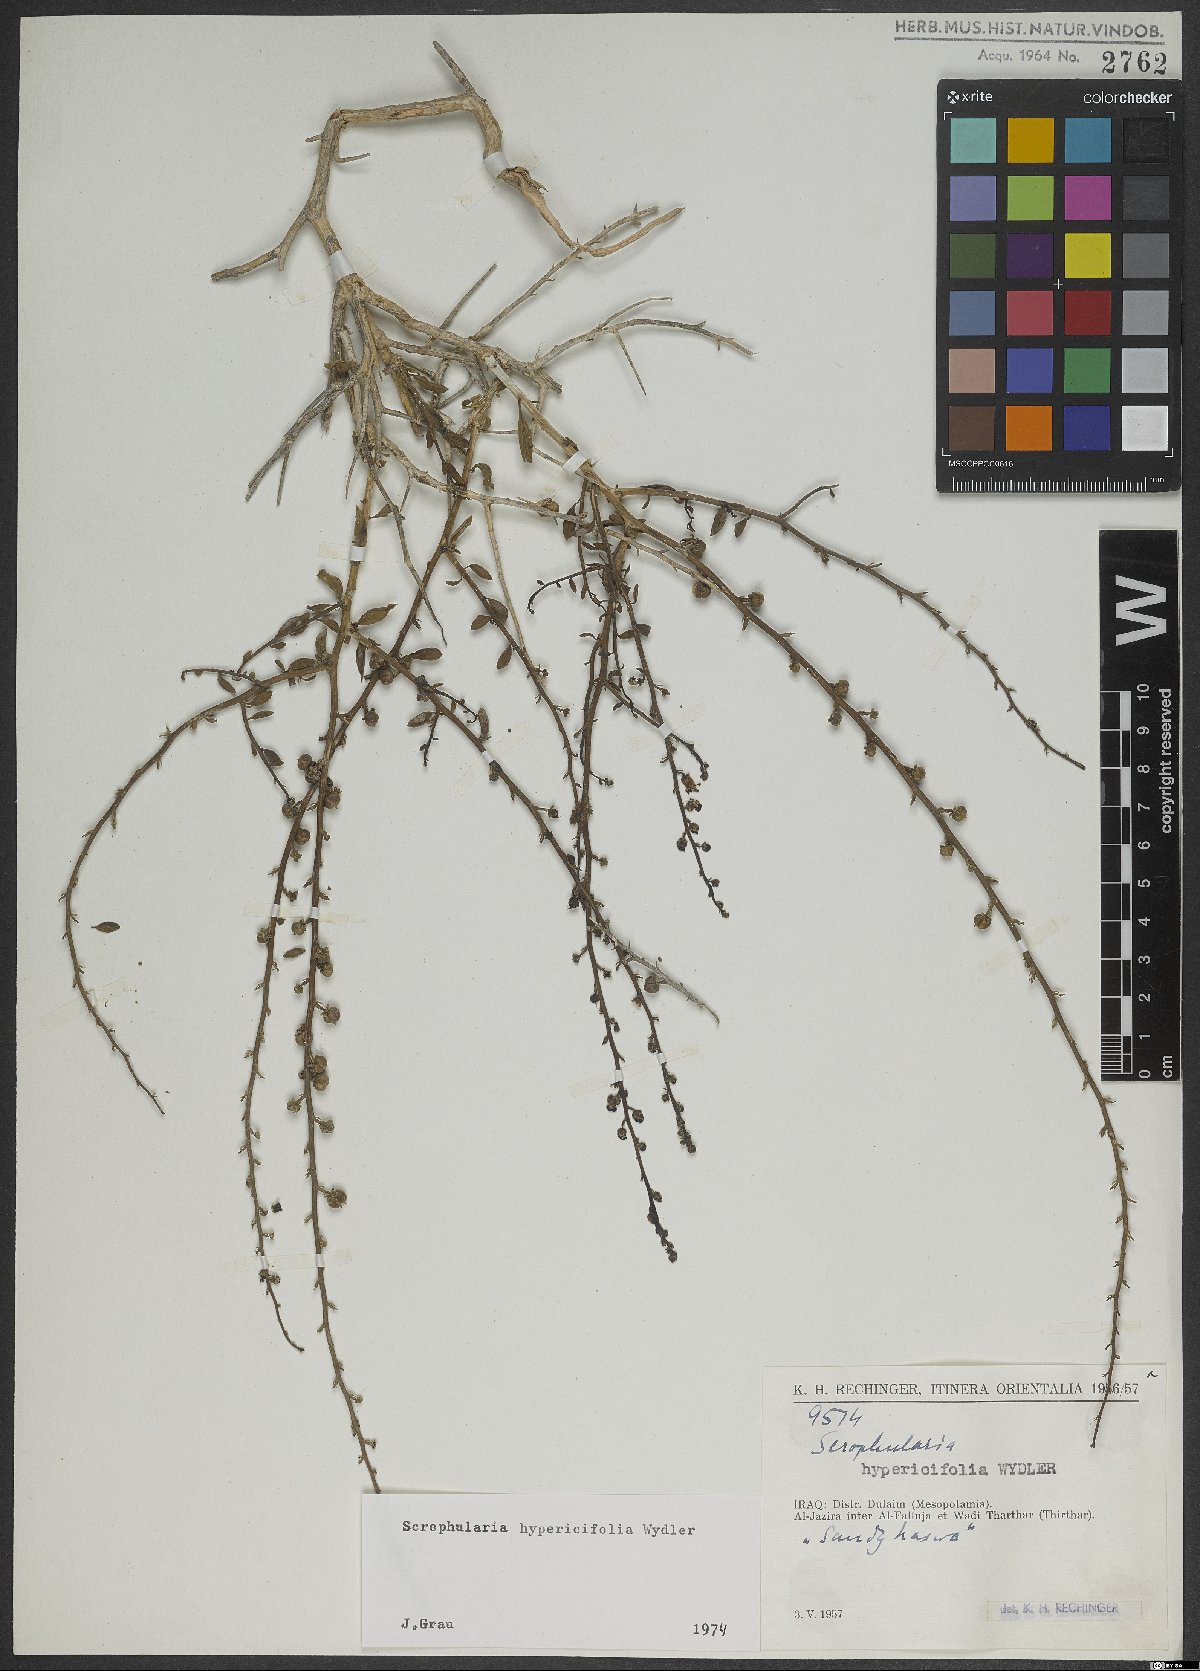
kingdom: Plantae
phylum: Tracheophyta
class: Magnoliopsida
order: Lamiales
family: Scrophulariaceae
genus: Scrophularia
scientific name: Scrophularia hypericifolia
